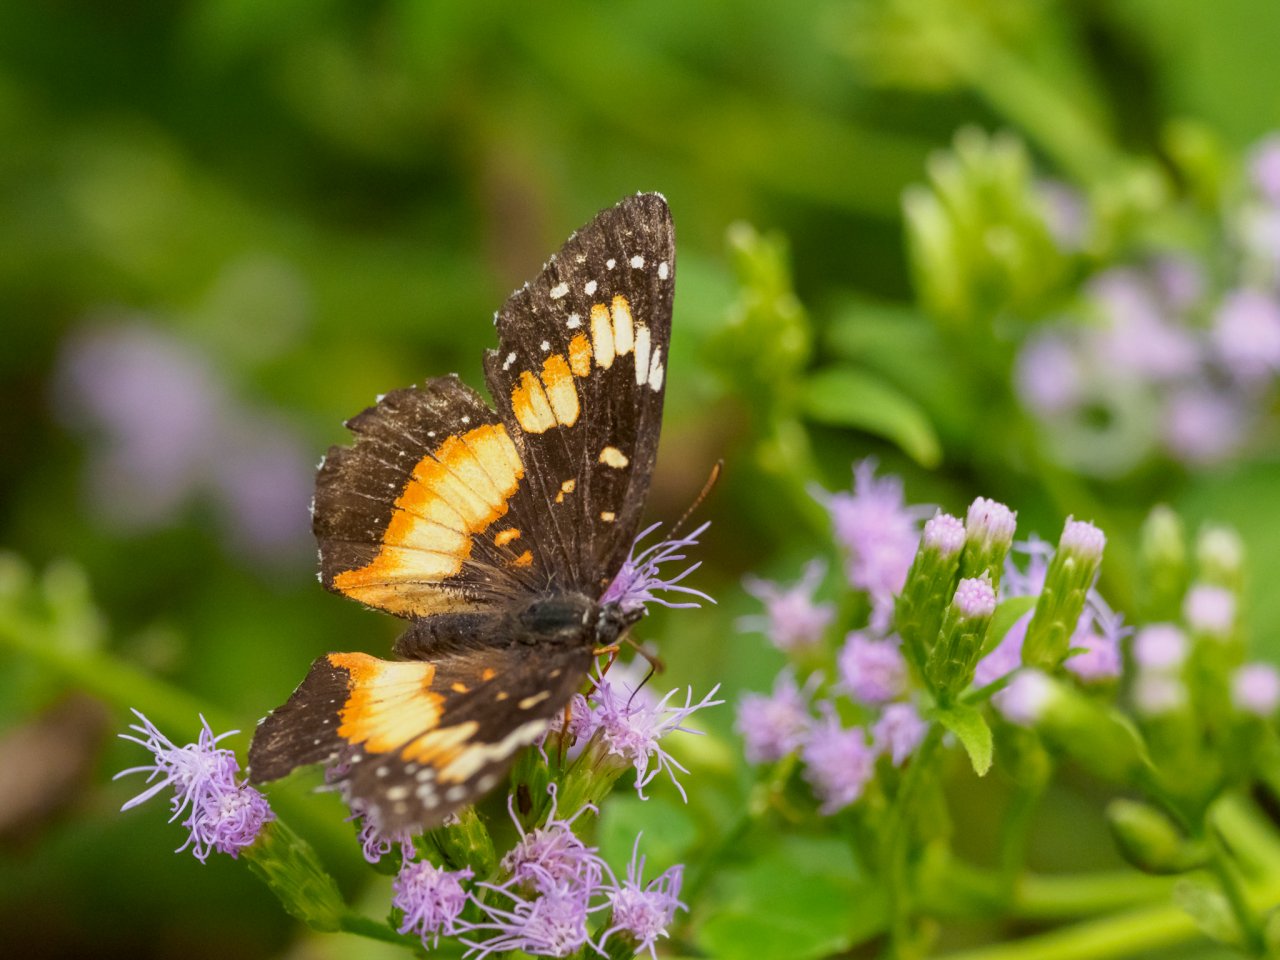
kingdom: Animalia
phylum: Arthropoda
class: Insecta
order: Lepidoptera
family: Nymphalidae
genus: Chlosyne
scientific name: Chlosyne lacinia
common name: Bordered Patch
